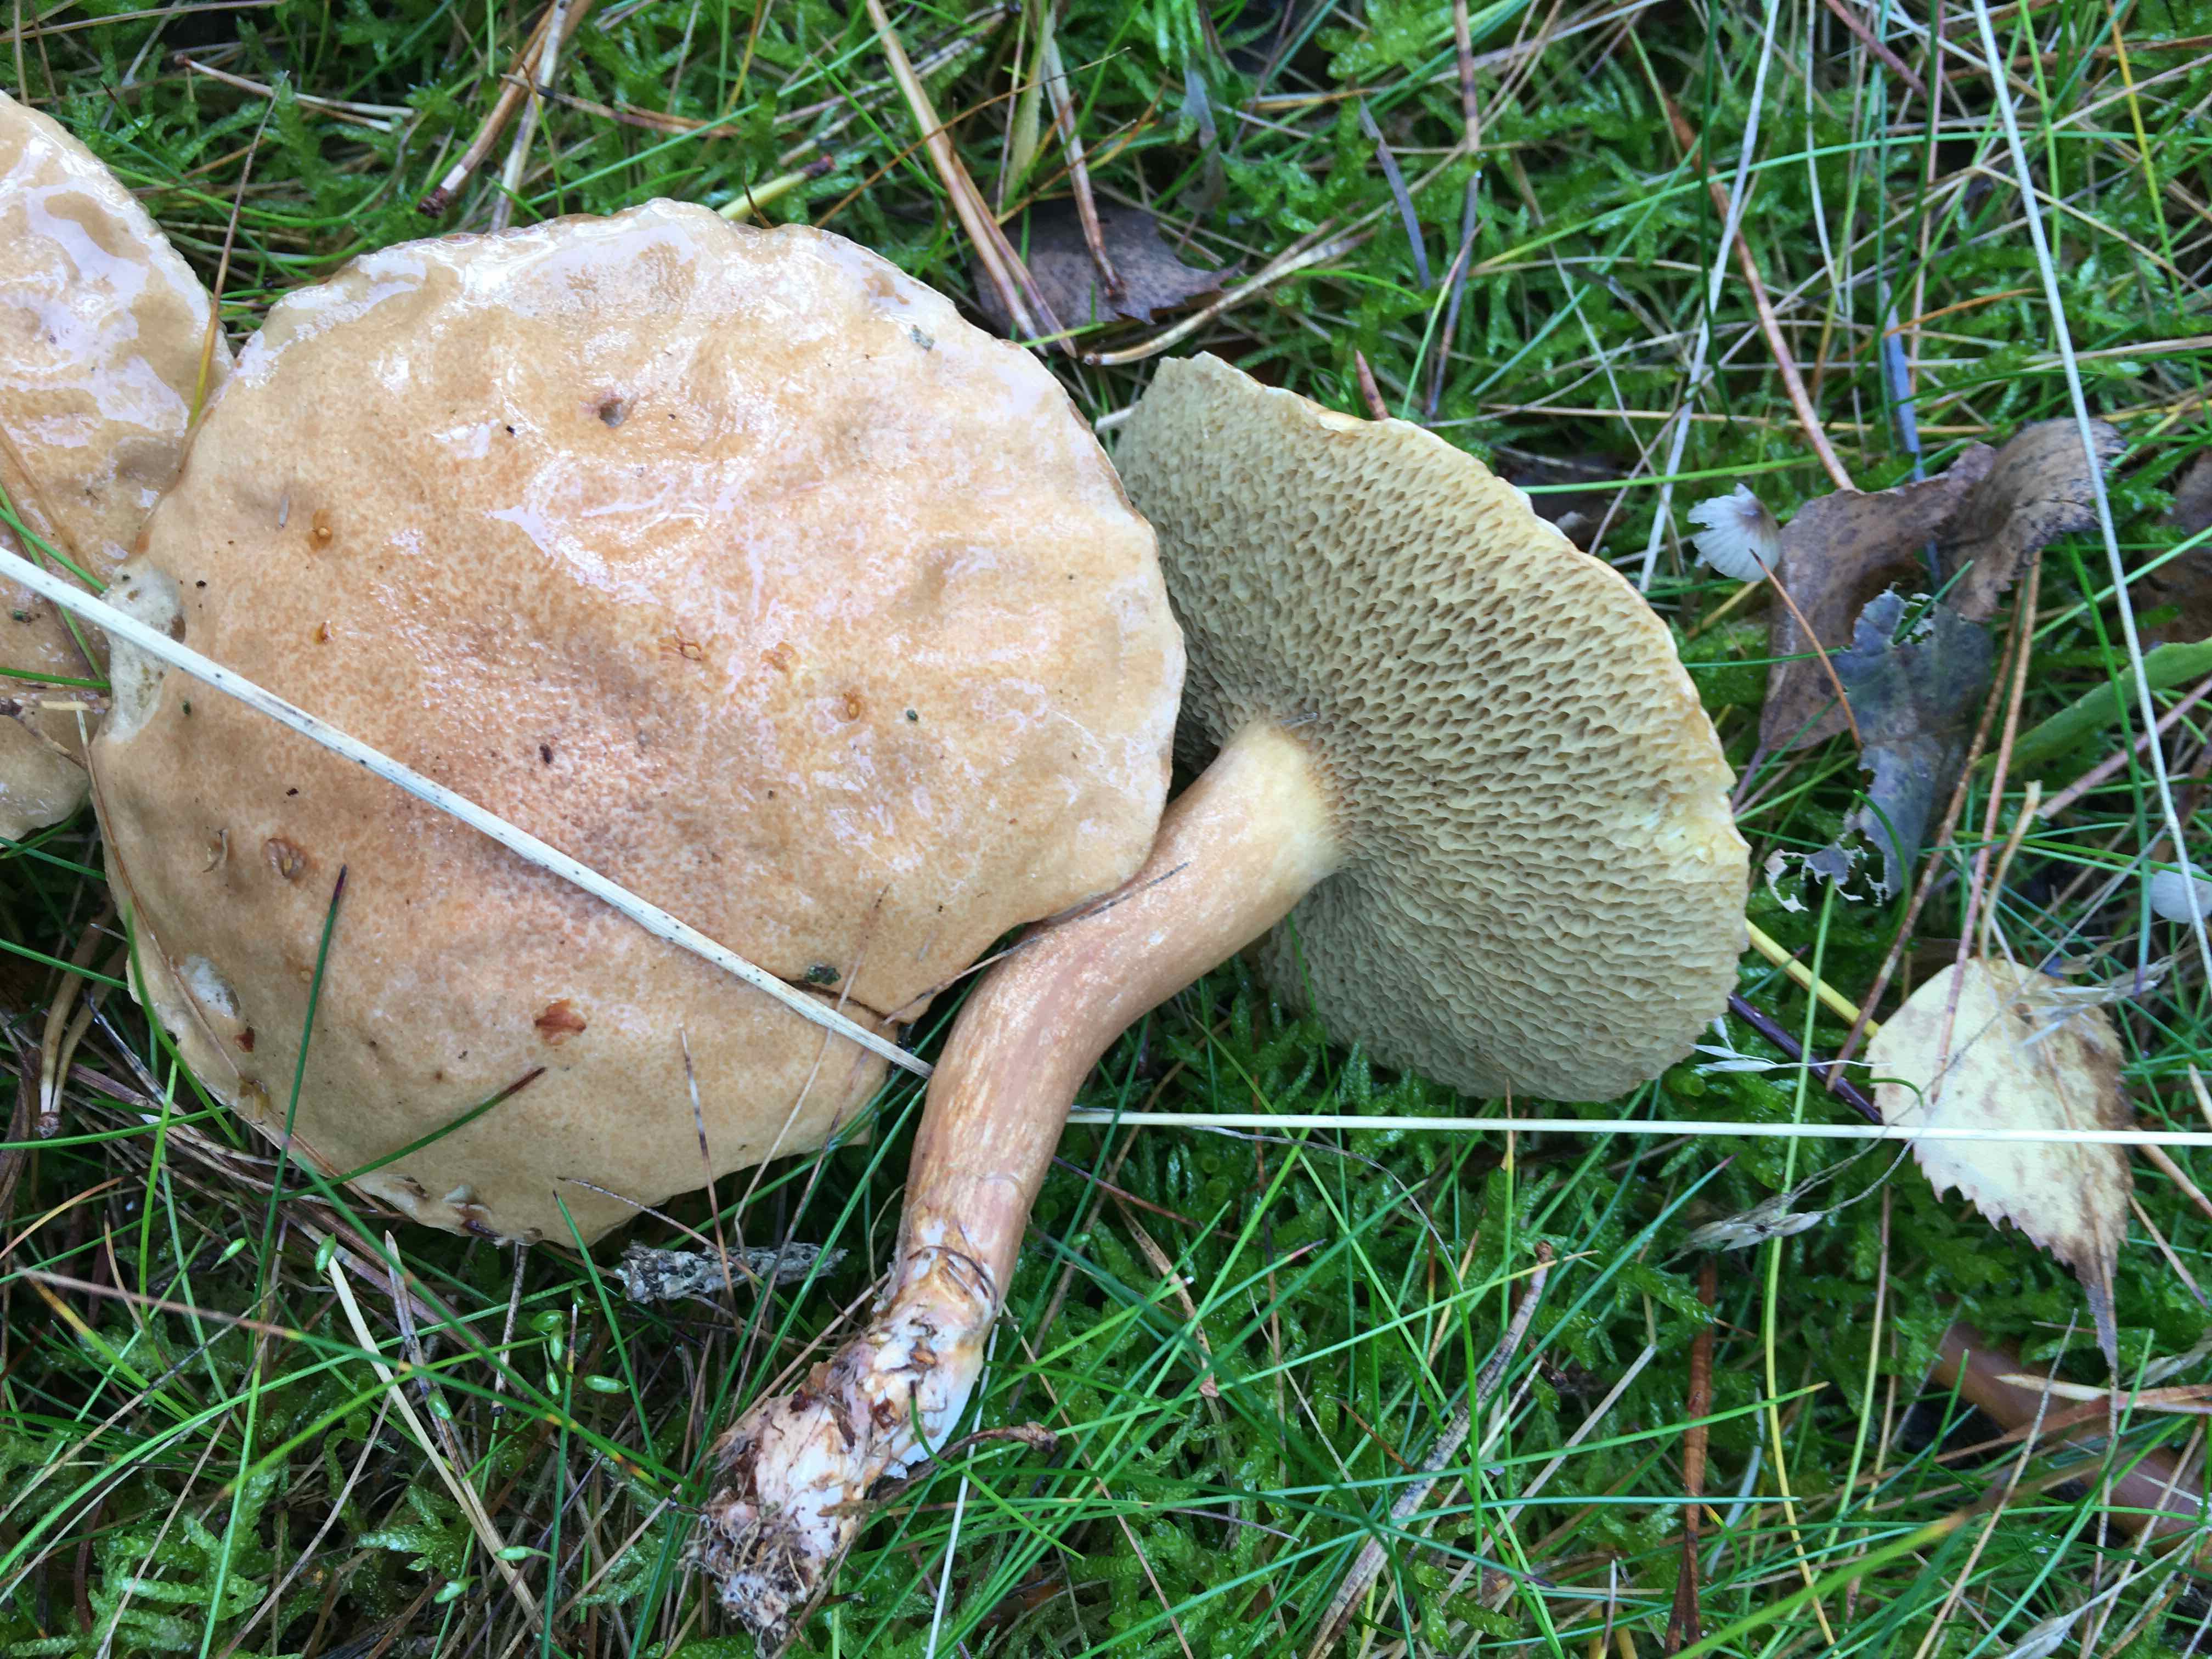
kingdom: Fungi
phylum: Basidiomycota
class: Agaricomycetes
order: Boletales
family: Suillaceae
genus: Suillus
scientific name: Suillus bovinus
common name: grovporet slimrørhat
